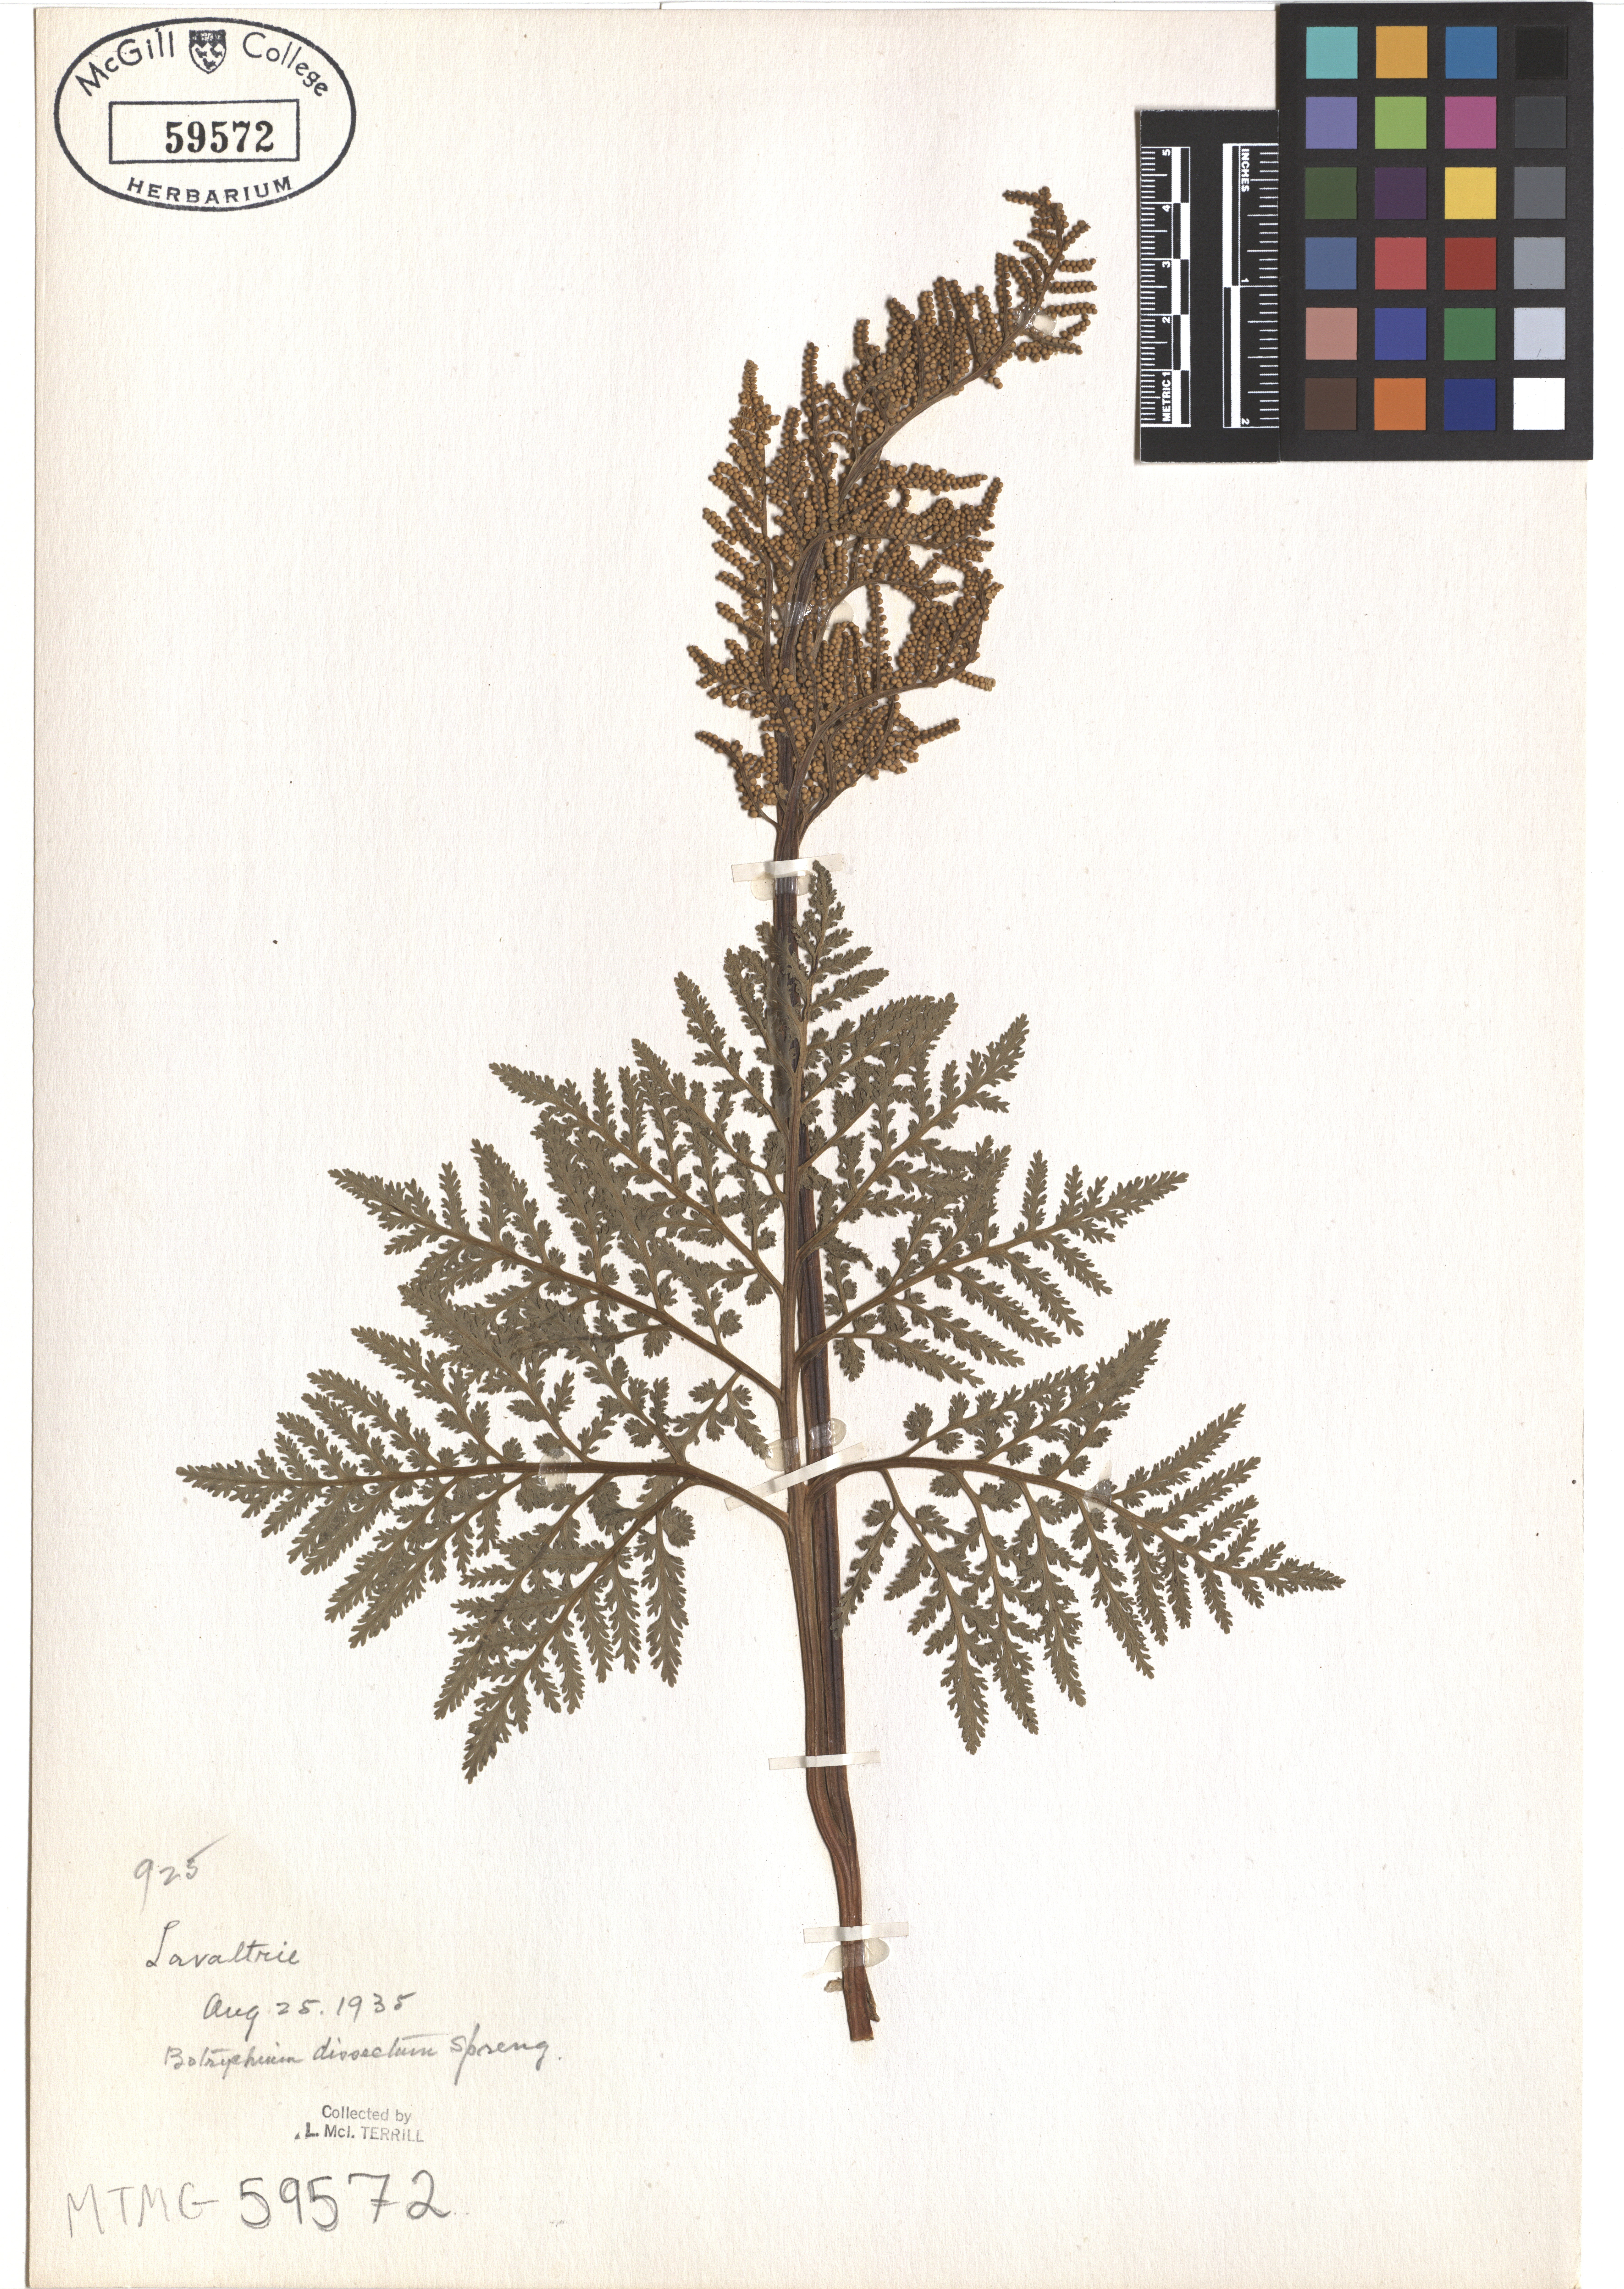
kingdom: Plantae
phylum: Tracheophyta
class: Polypodiopsida
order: Ophioglossales
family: Ophioglossaceae
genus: Sceptridium
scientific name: Sceptridium dissectum
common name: Cut-leaved grapefern
